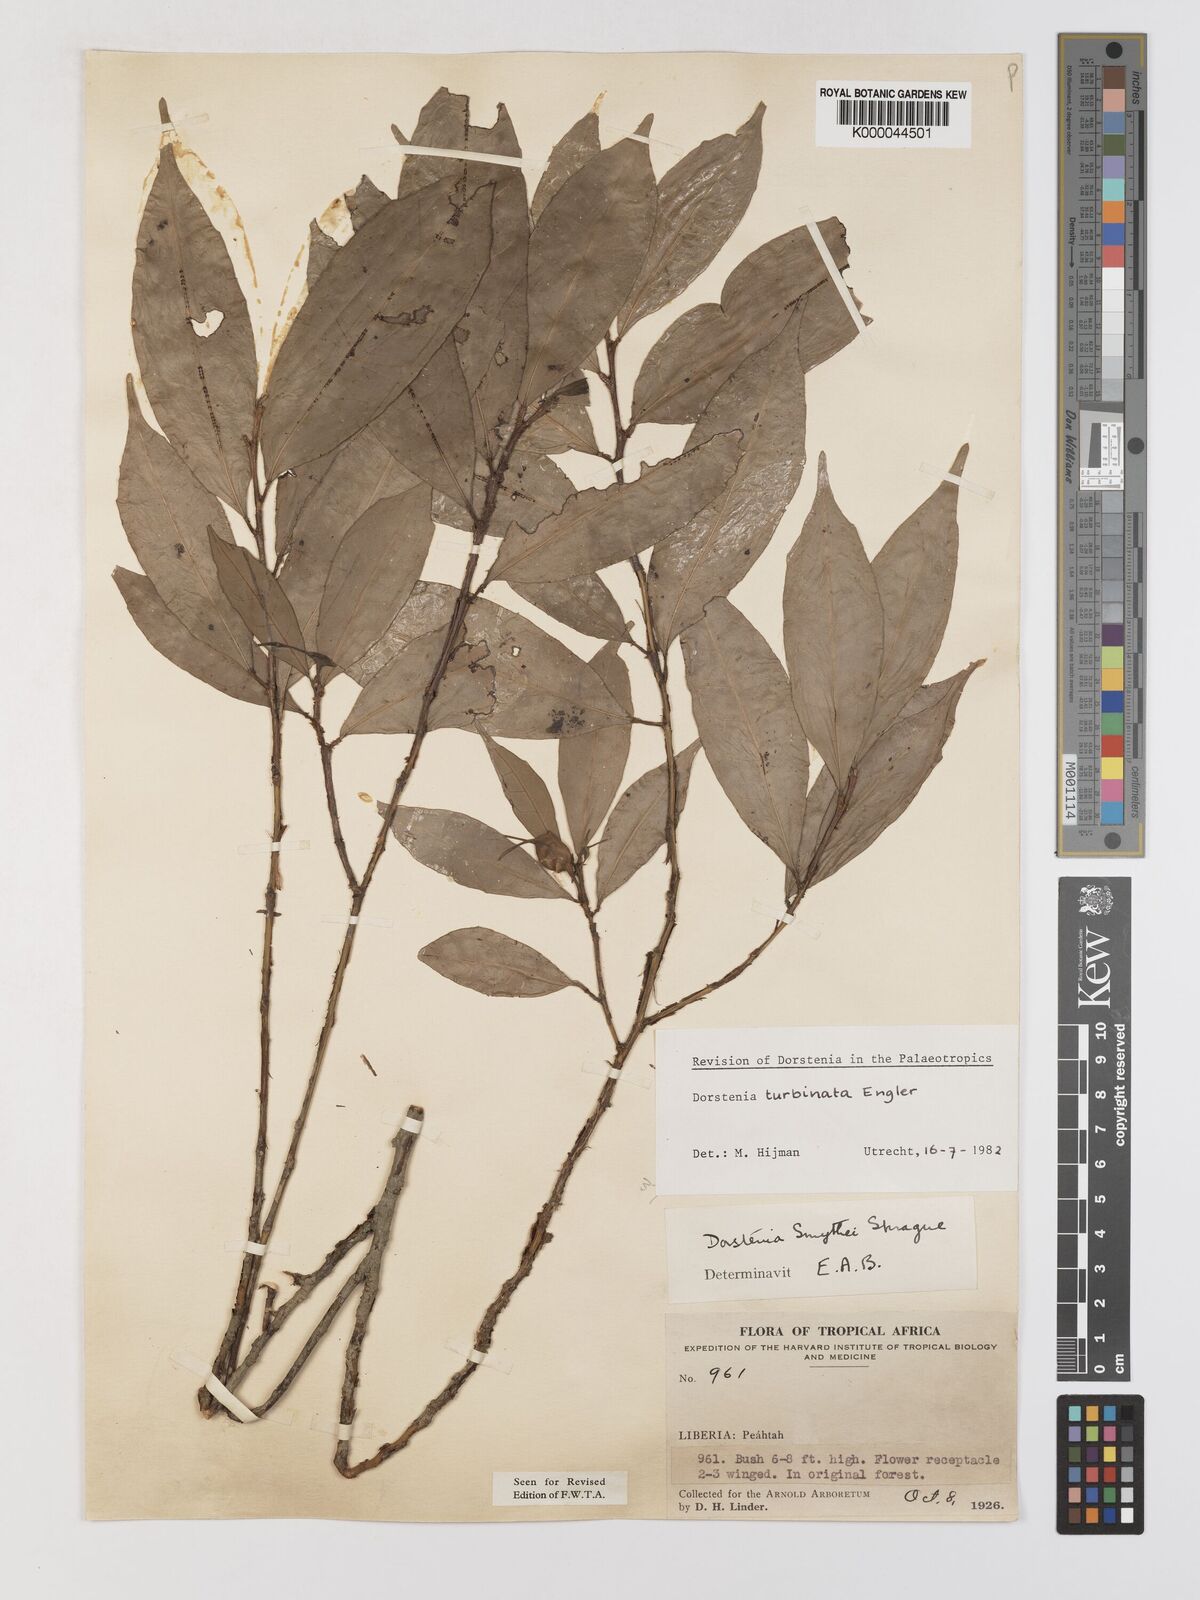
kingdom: Plantae
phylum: Tracheophyta
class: Magnoliopsida
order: Rosales
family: Moraceae
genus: Hijmania
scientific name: Hijmania turbinata
